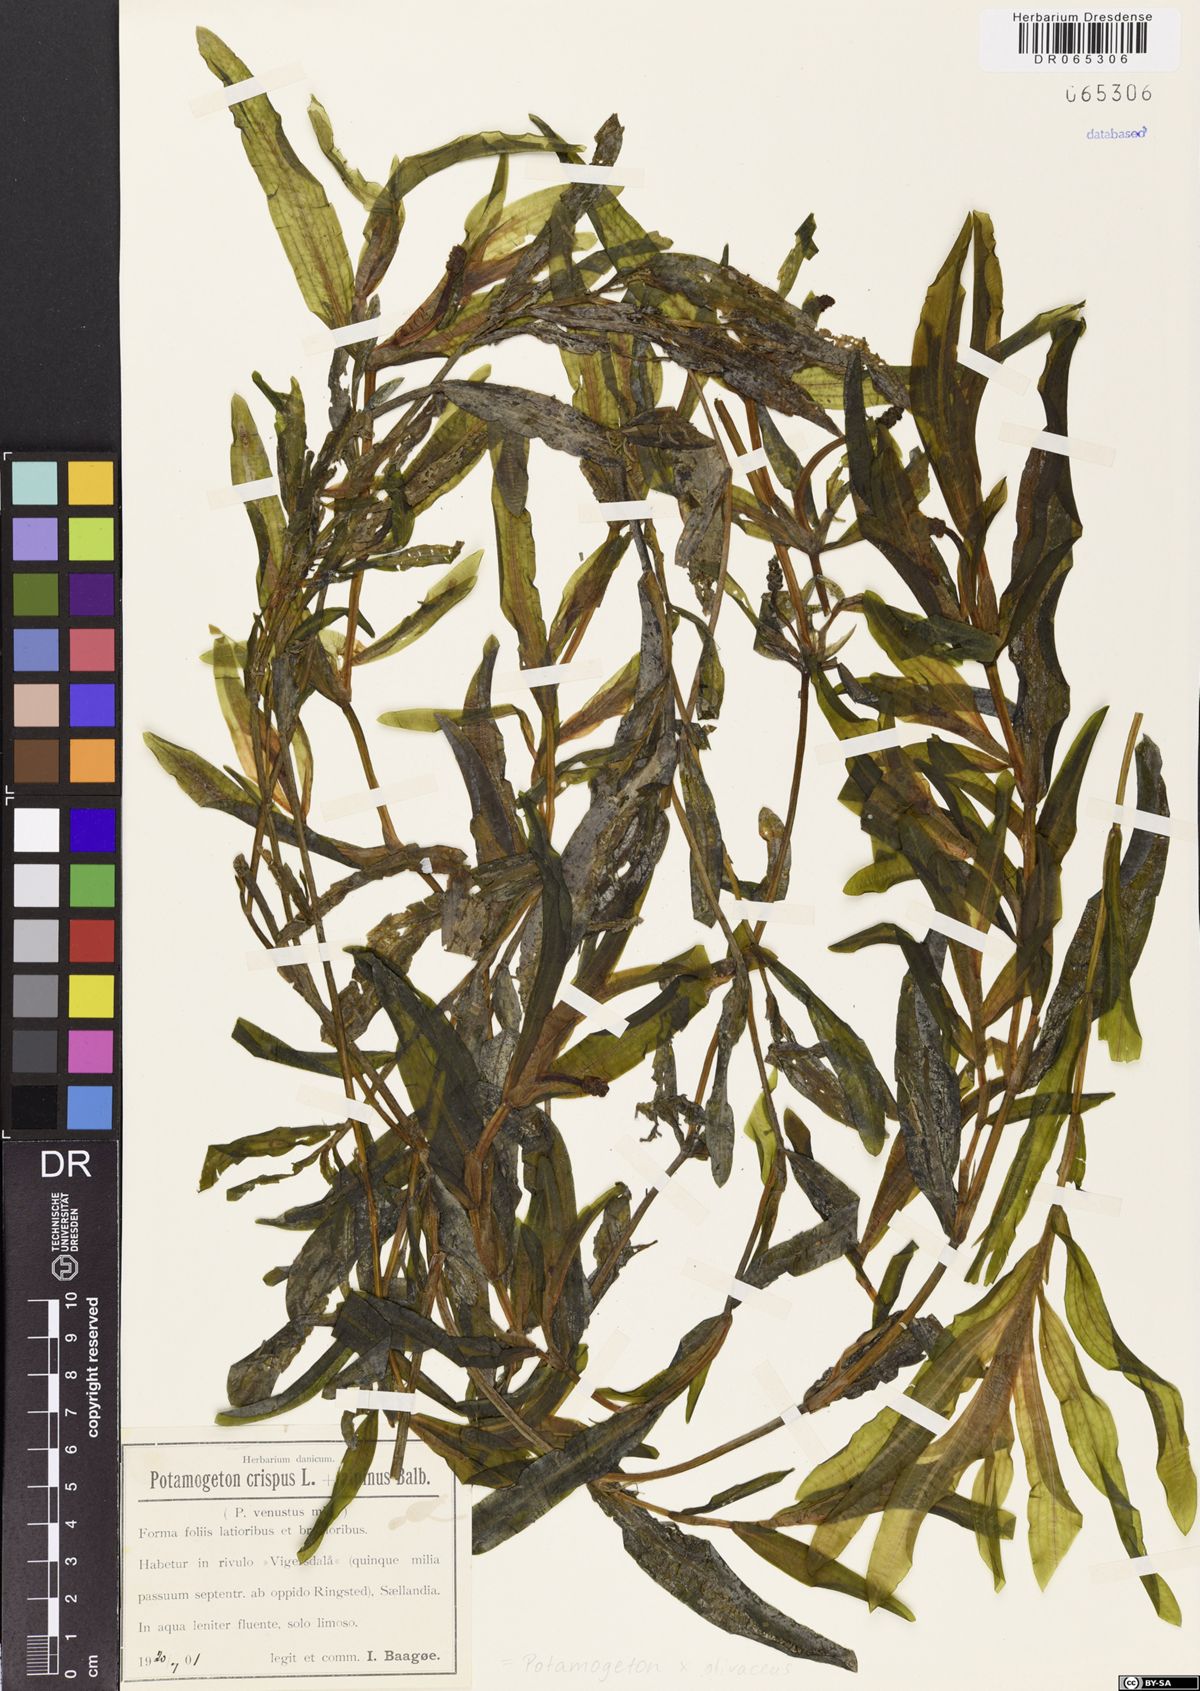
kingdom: Plantae
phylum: Tracheophyta
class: Liliopsida
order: Alismatales
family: Potamogetonaceae
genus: Potamogeton
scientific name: Potamogeton olivaceus
